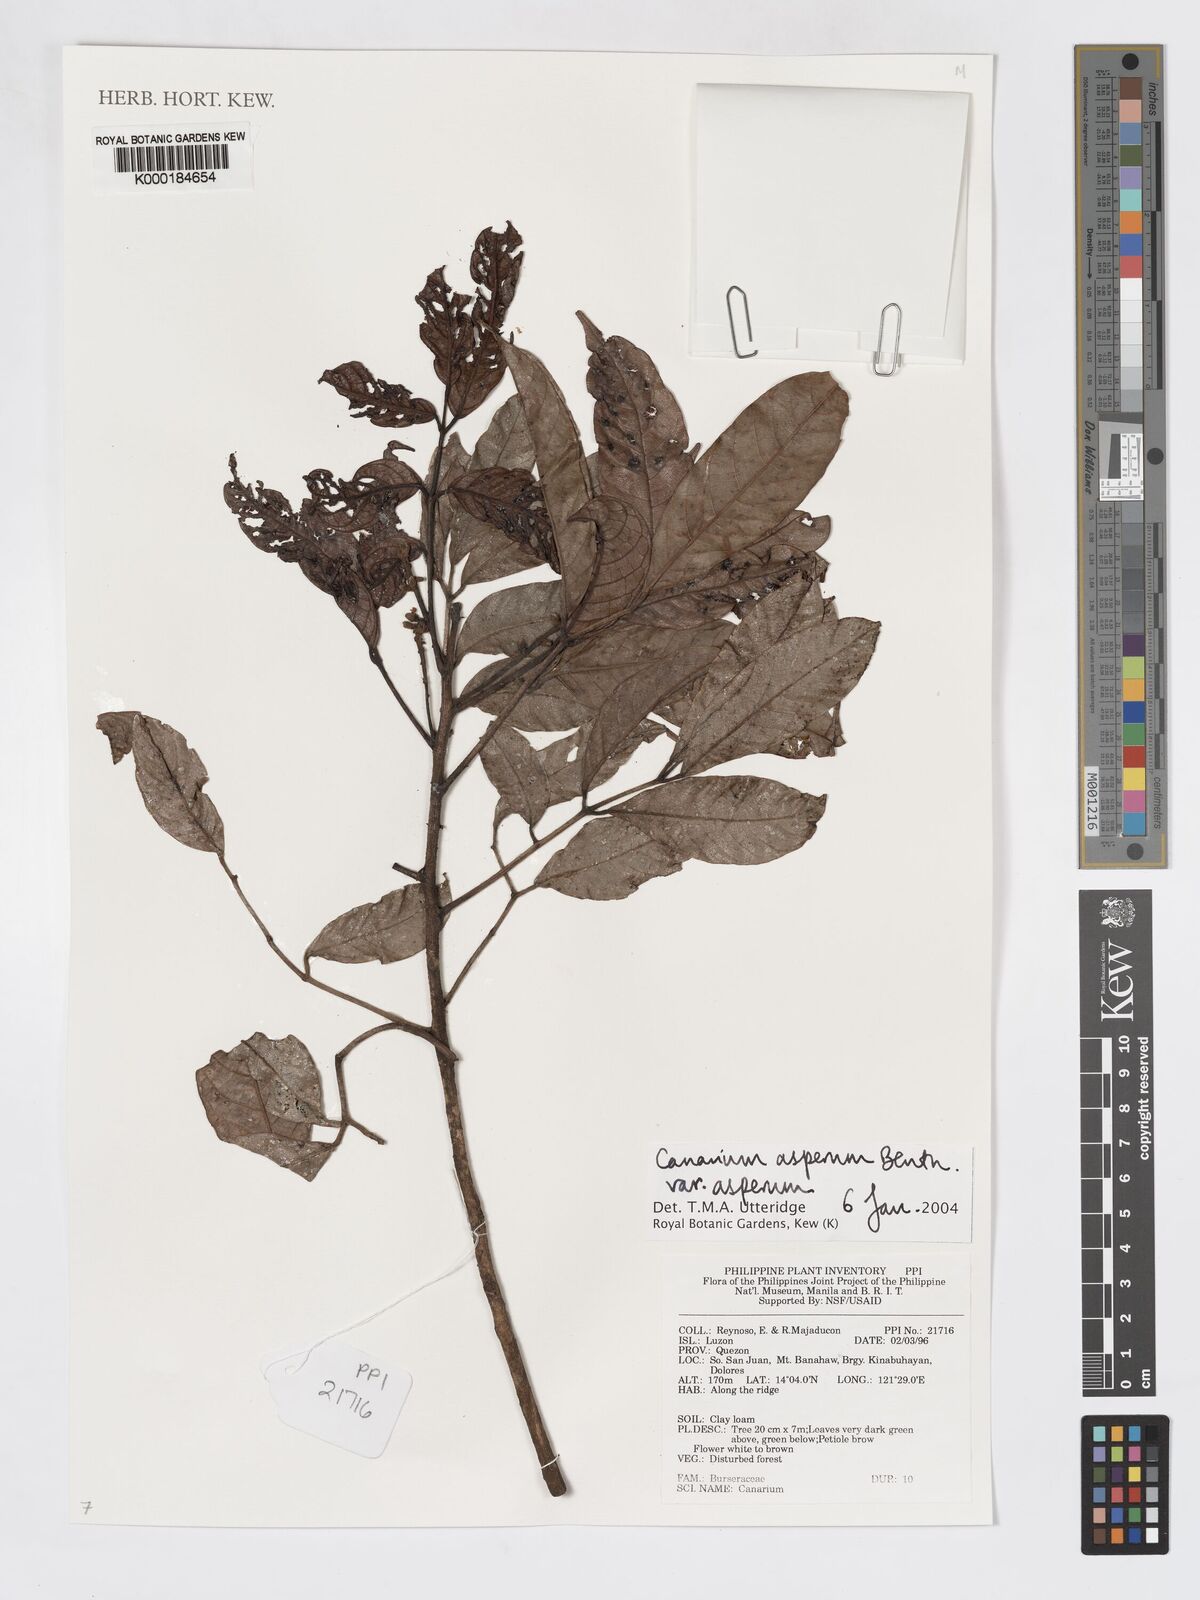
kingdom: Plantae
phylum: Tracheophyta
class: Magnoliopsida
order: Sapindales
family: Burseraceae
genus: Canarium
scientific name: Canarium asperum
